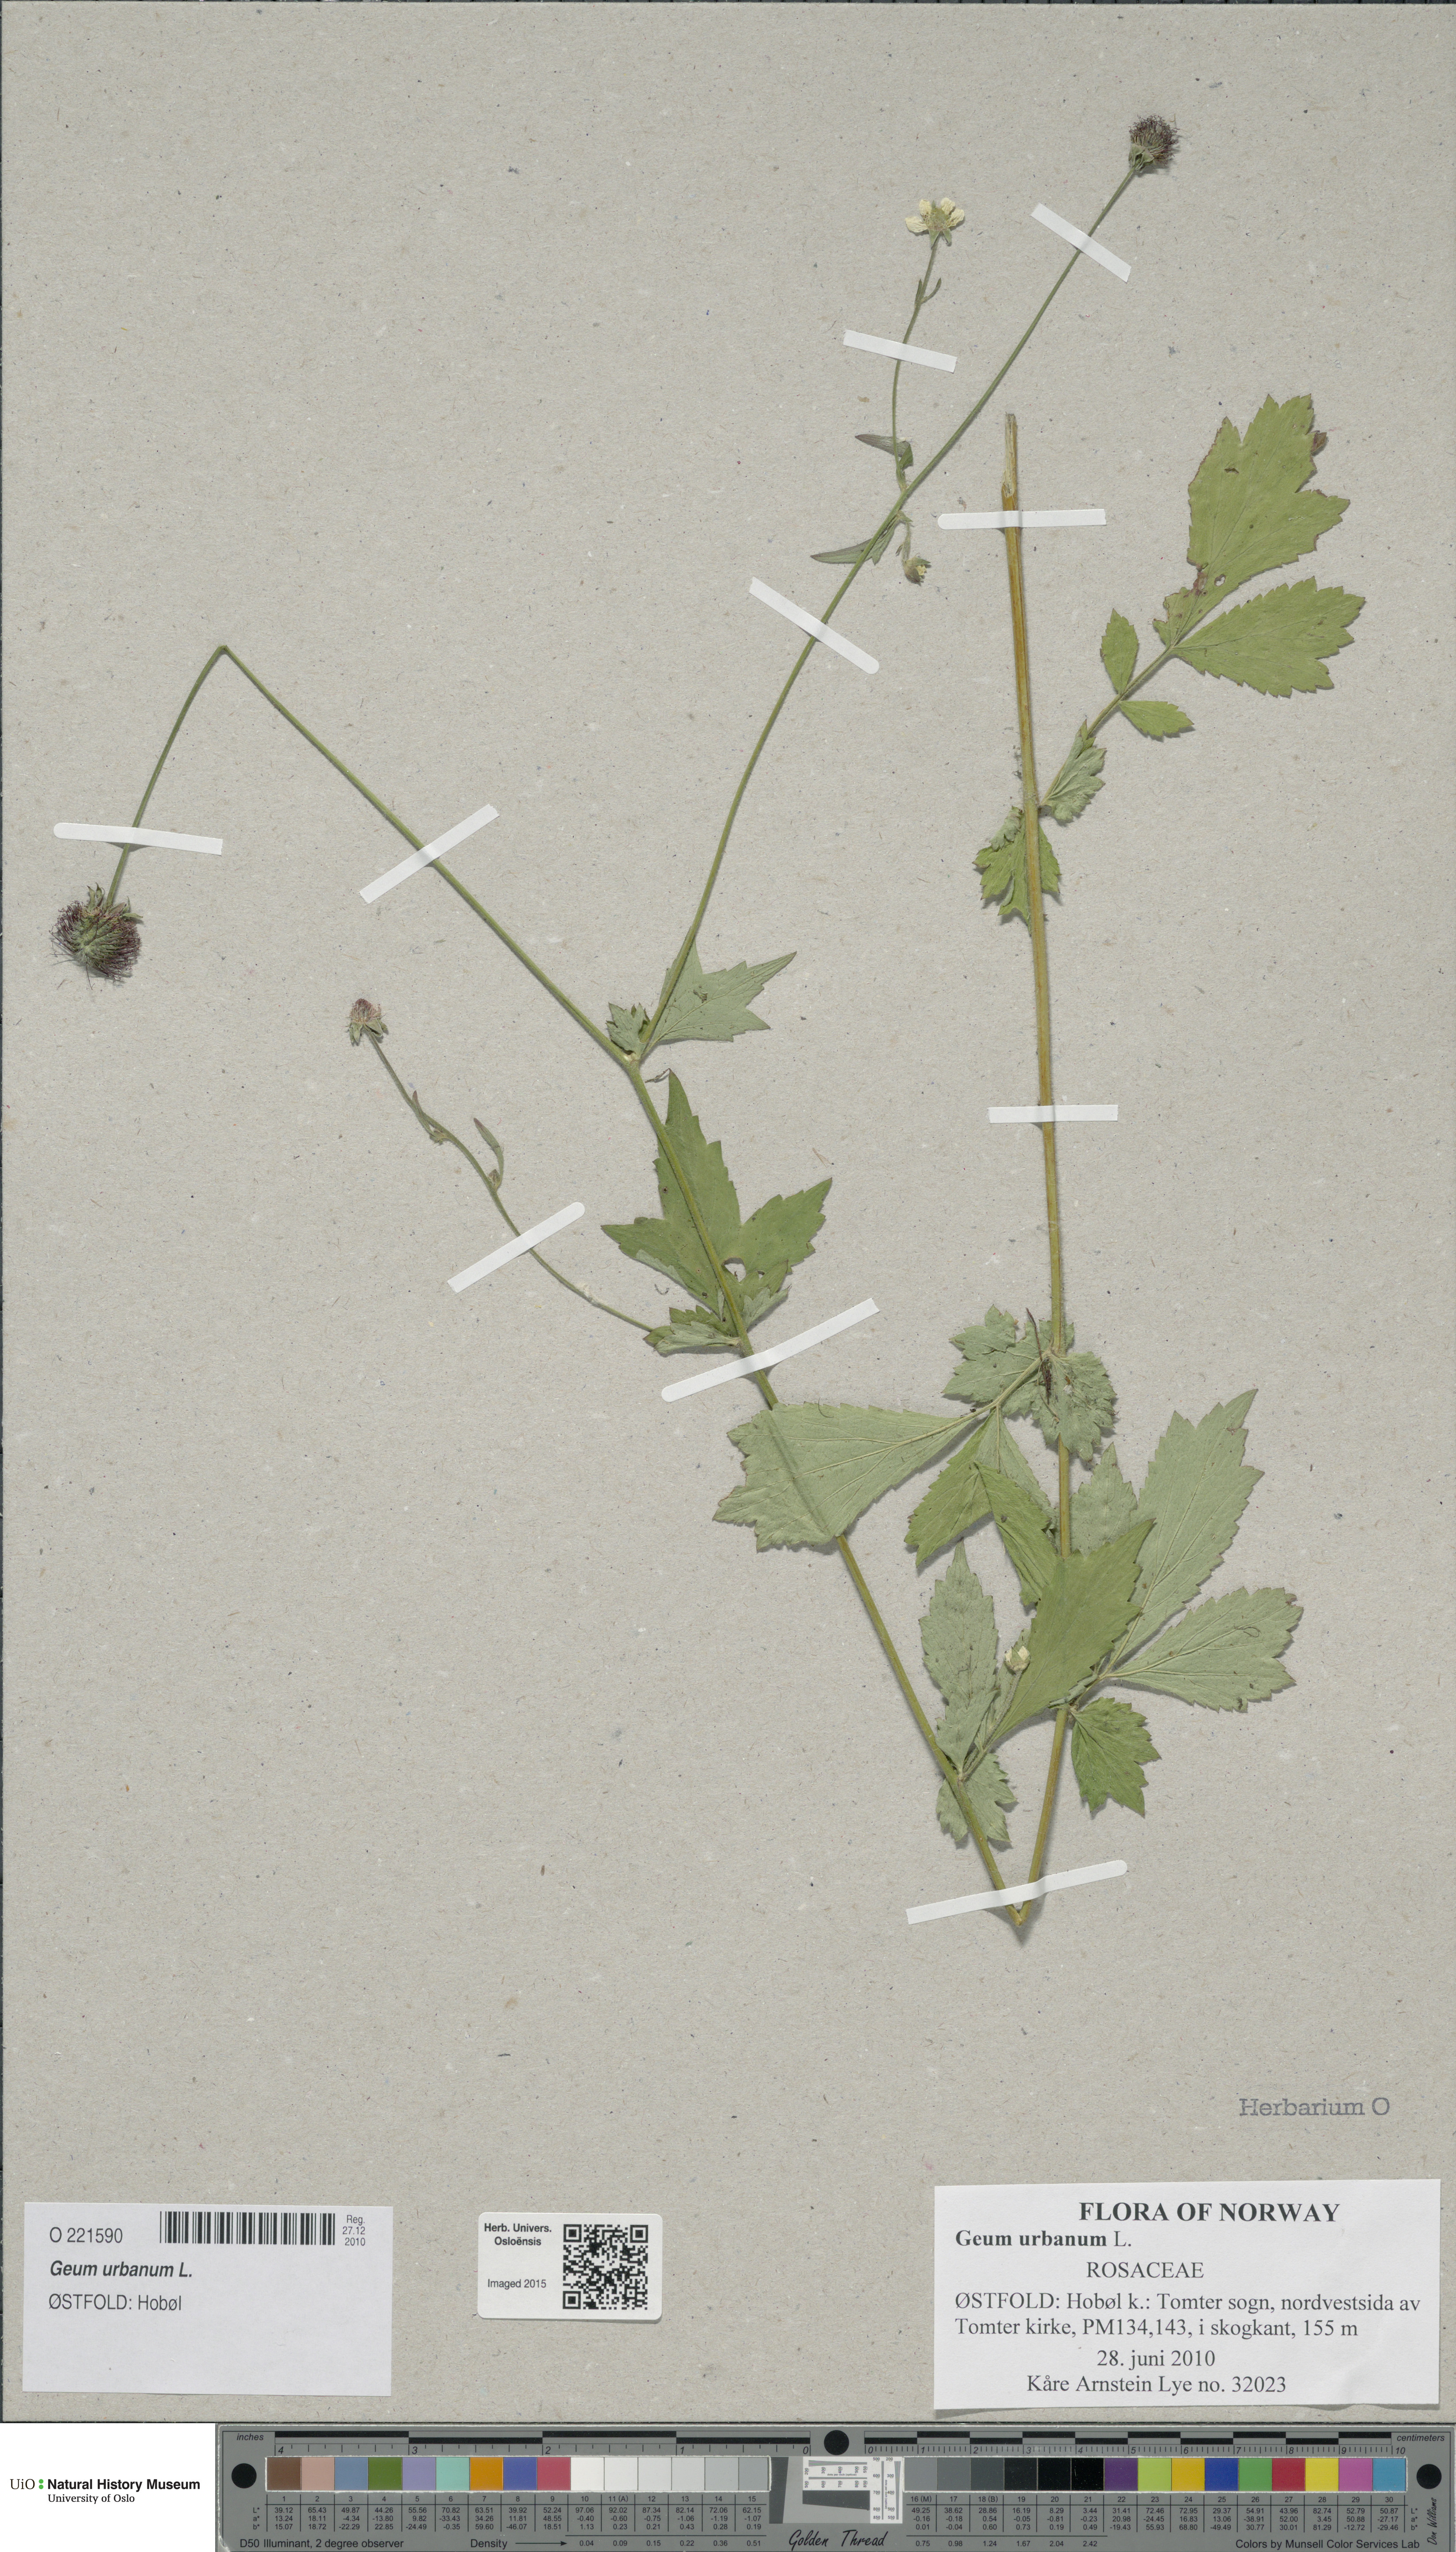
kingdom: Plantae
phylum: Tracheophyta
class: Magnoliopsida
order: Rosales
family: Rosaceae
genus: Geum
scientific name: Geum urbanum
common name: Wood avens
